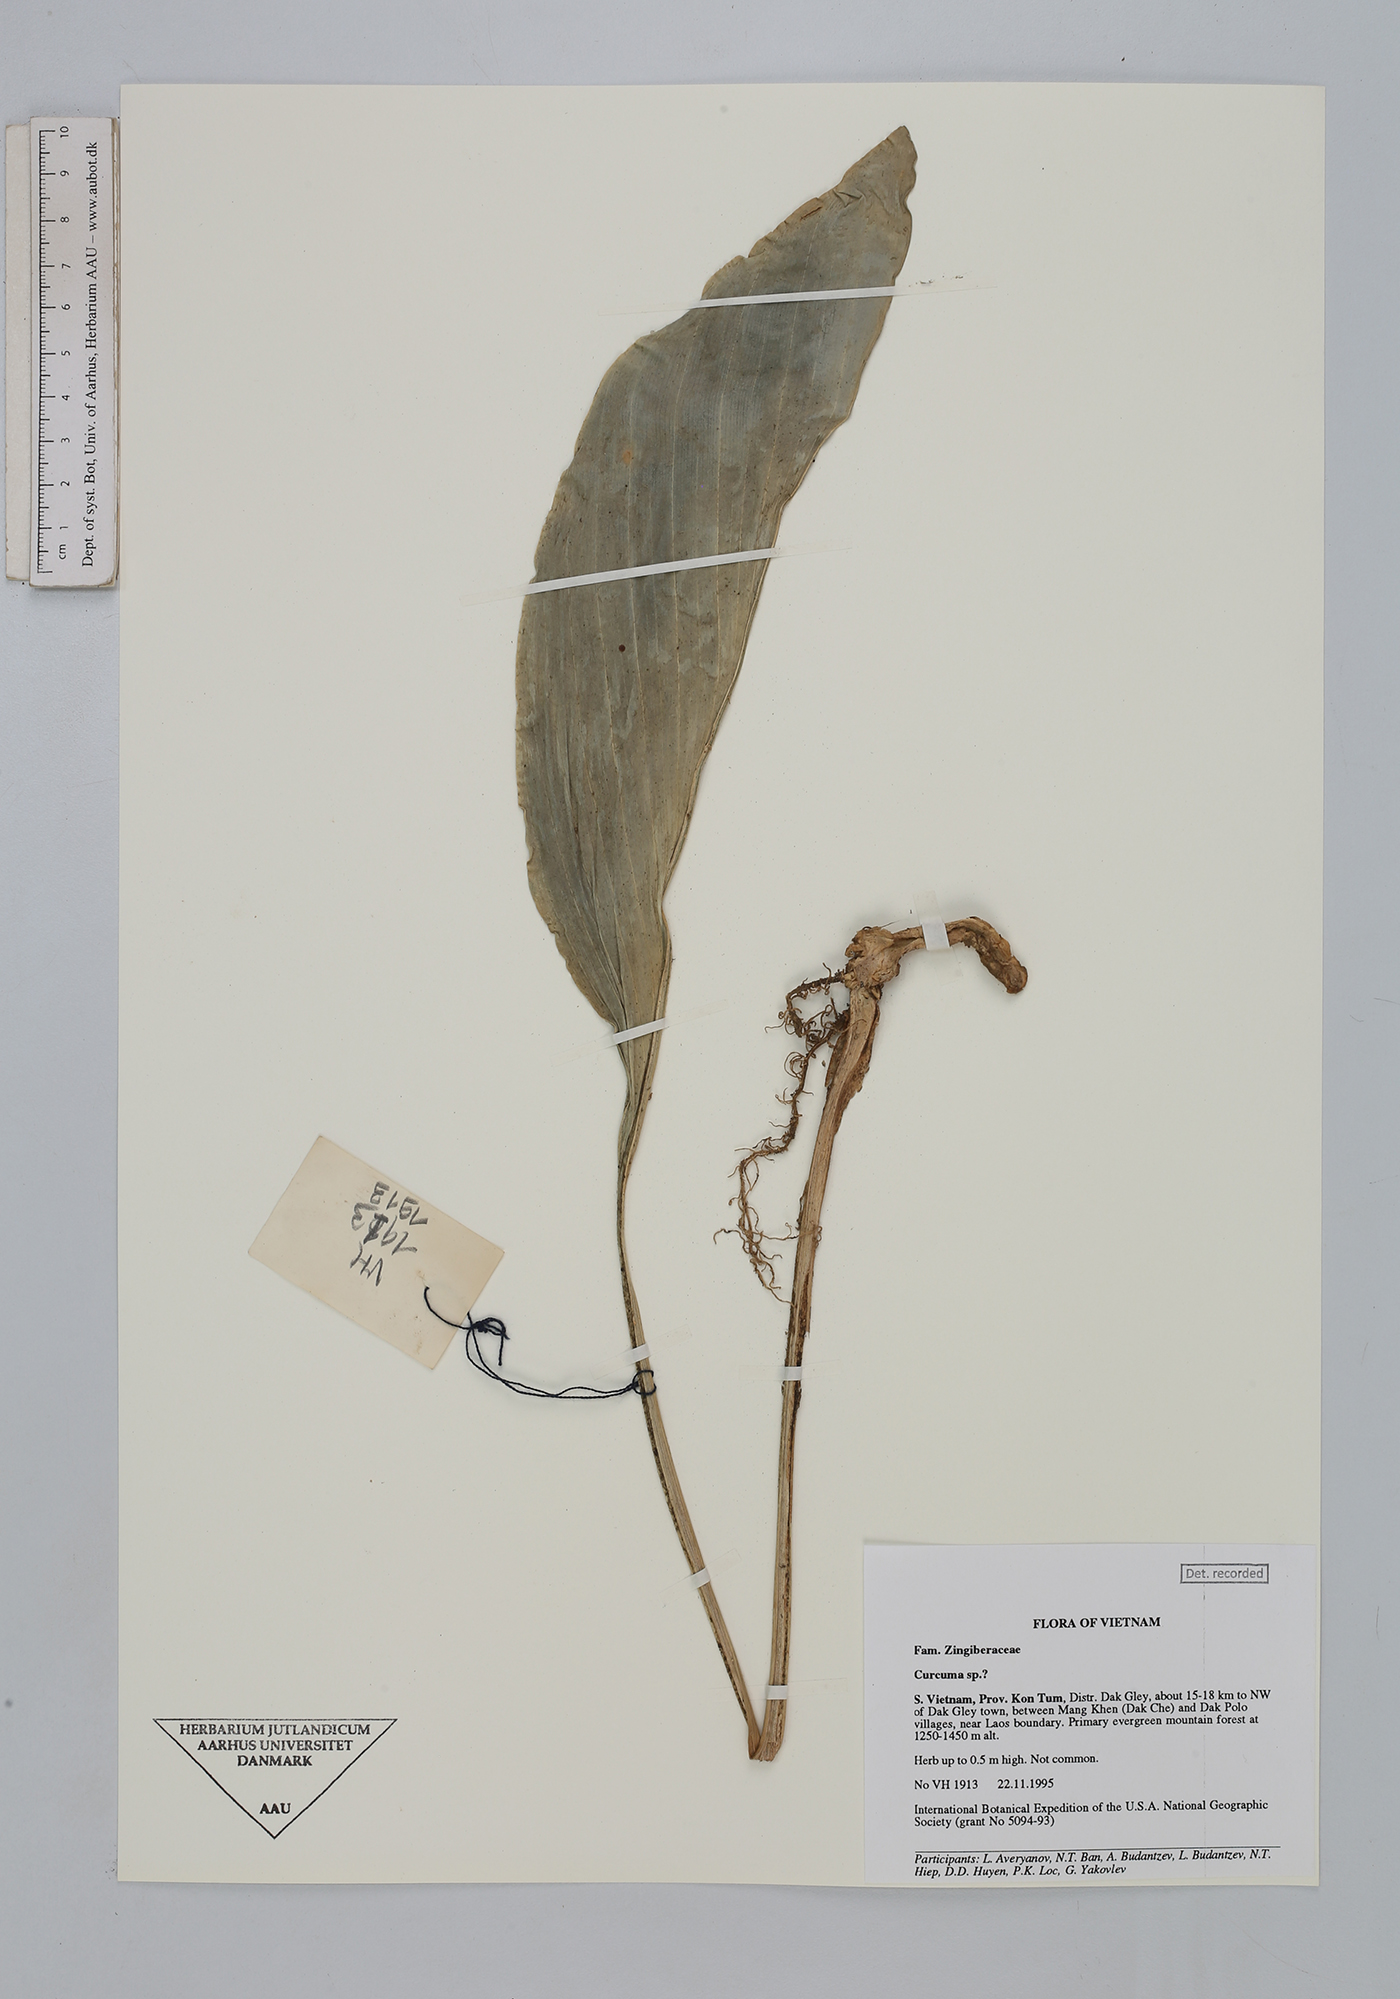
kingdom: Plantae
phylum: Tracheophyta
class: Liliopsida
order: Zingiberales
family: Zingiberaceae
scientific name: Zingiberaceae
